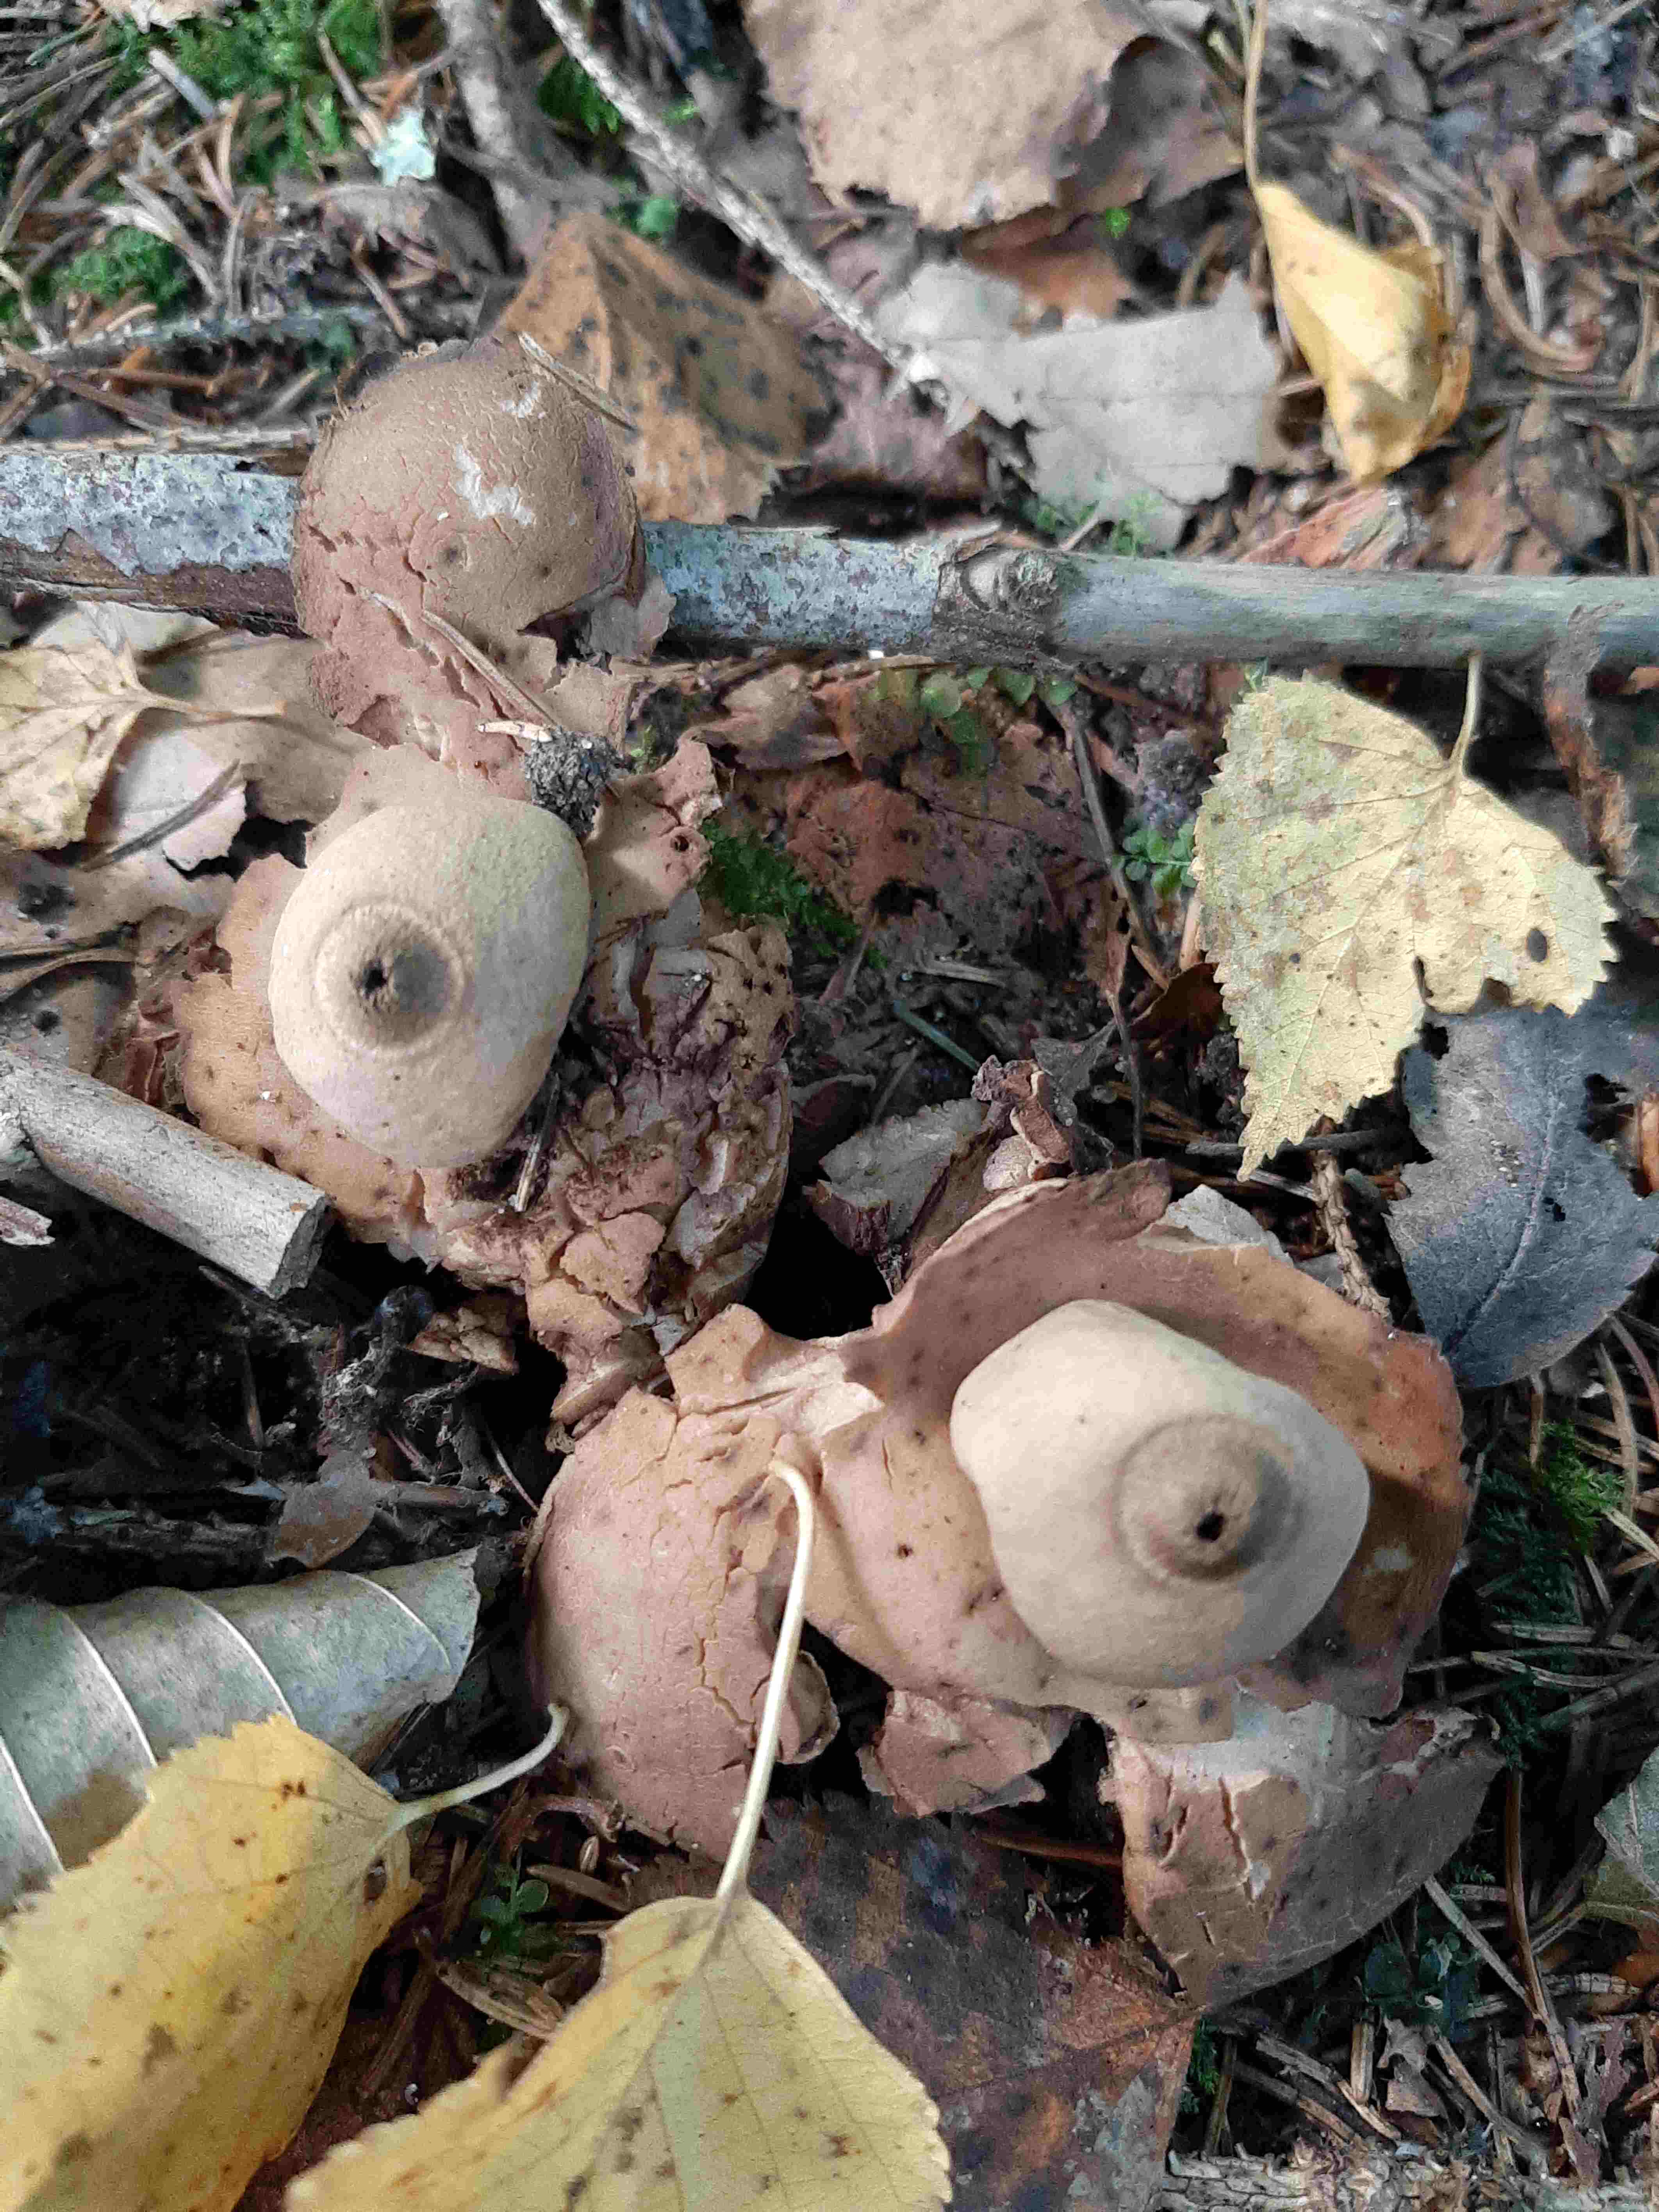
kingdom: Fungi
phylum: Basidiomycota
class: Agaricomycetes
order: Geastrales
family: Geastraceae
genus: Geastrum
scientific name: Geastrum michelianum
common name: kødet stjernebold
